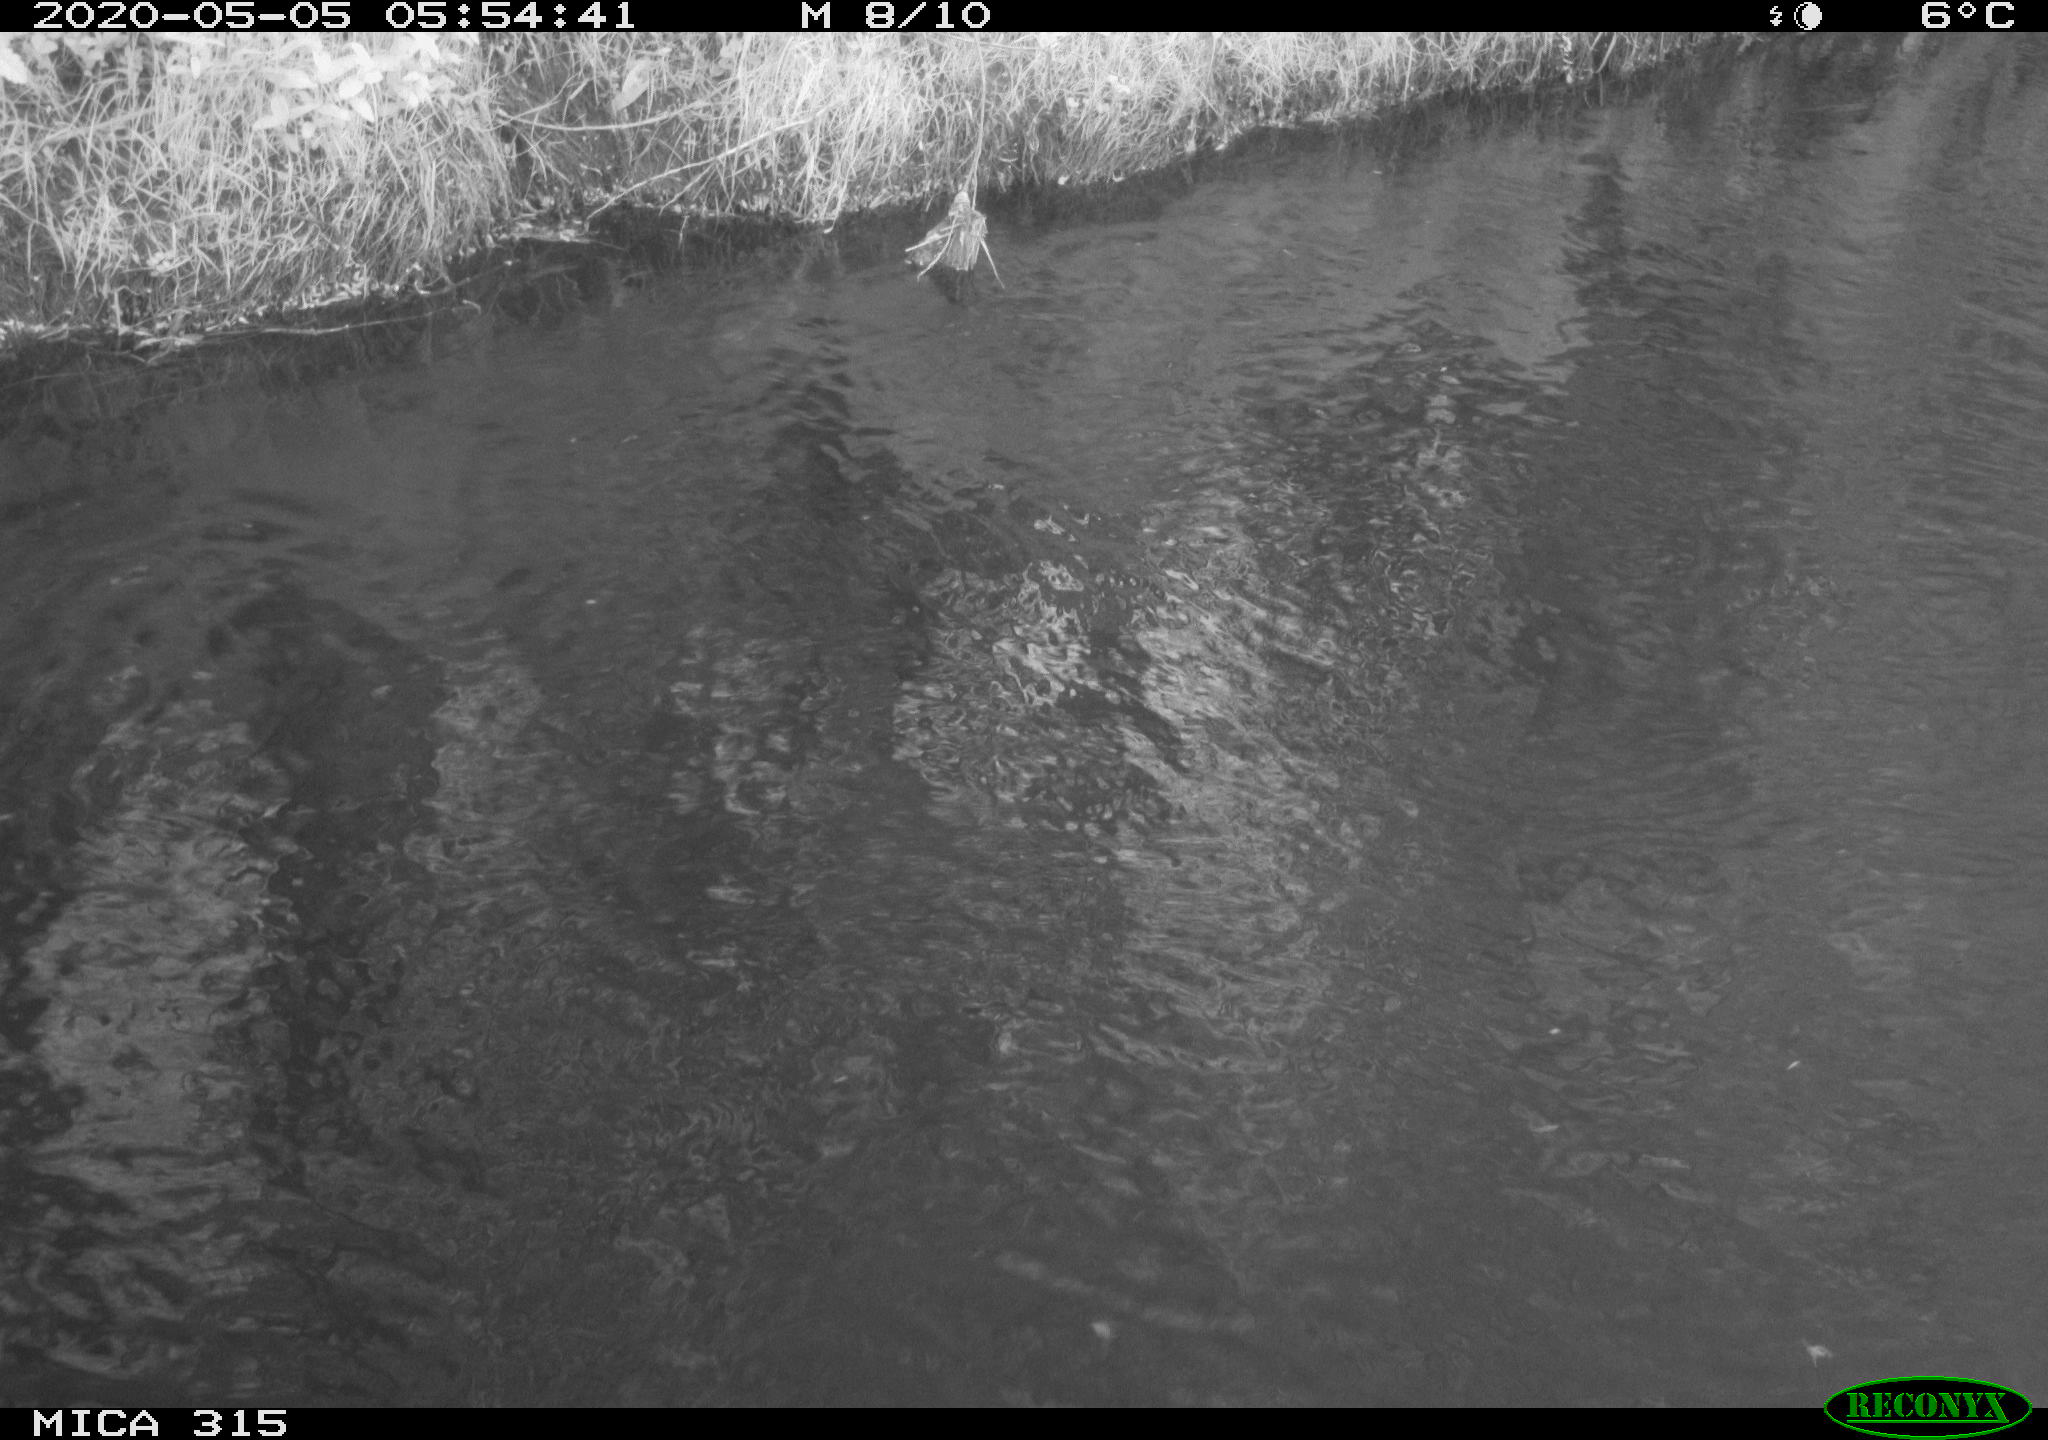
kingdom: Animalia
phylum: Chordata
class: Aves
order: Anseriformes
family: Anatidae
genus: Anas
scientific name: Anas platyrhynchos
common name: Mallard
